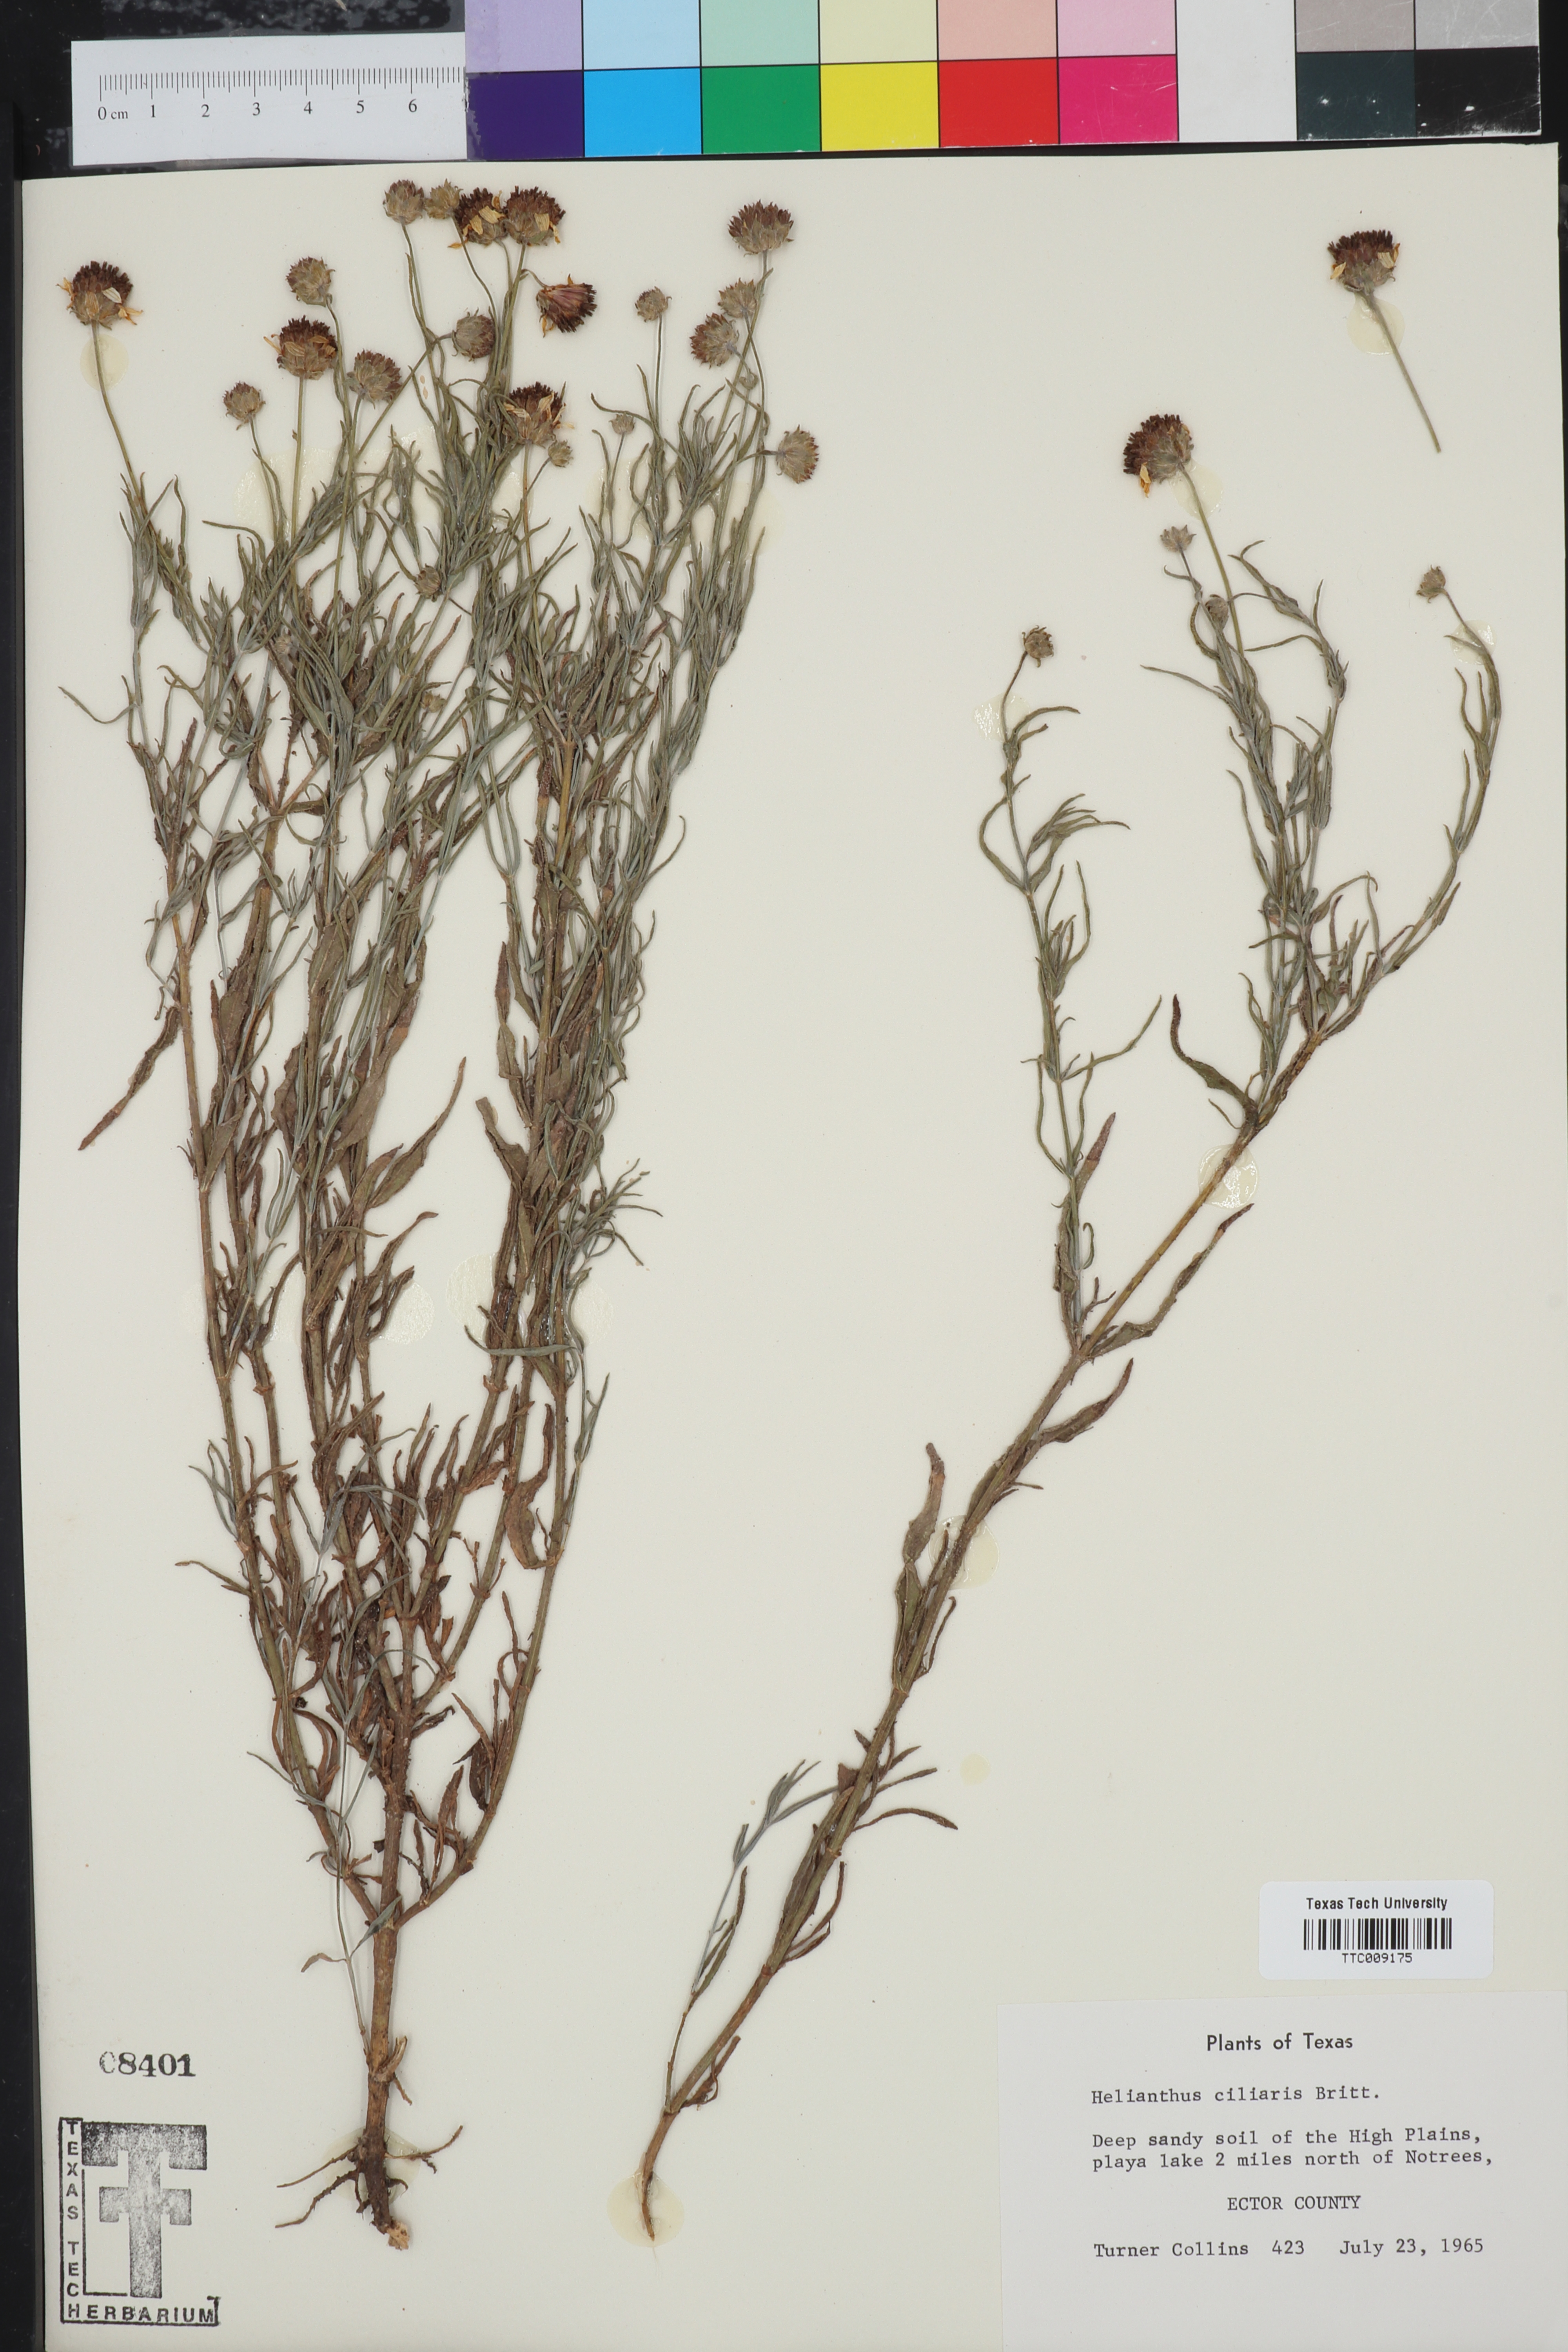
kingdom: Plantae
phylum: Tracheophyta
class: Magnoliopsida
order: Asterales
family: Asteraceae
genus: Helianthus
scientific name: Helianthus ciliaris
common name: Texas blueweed
